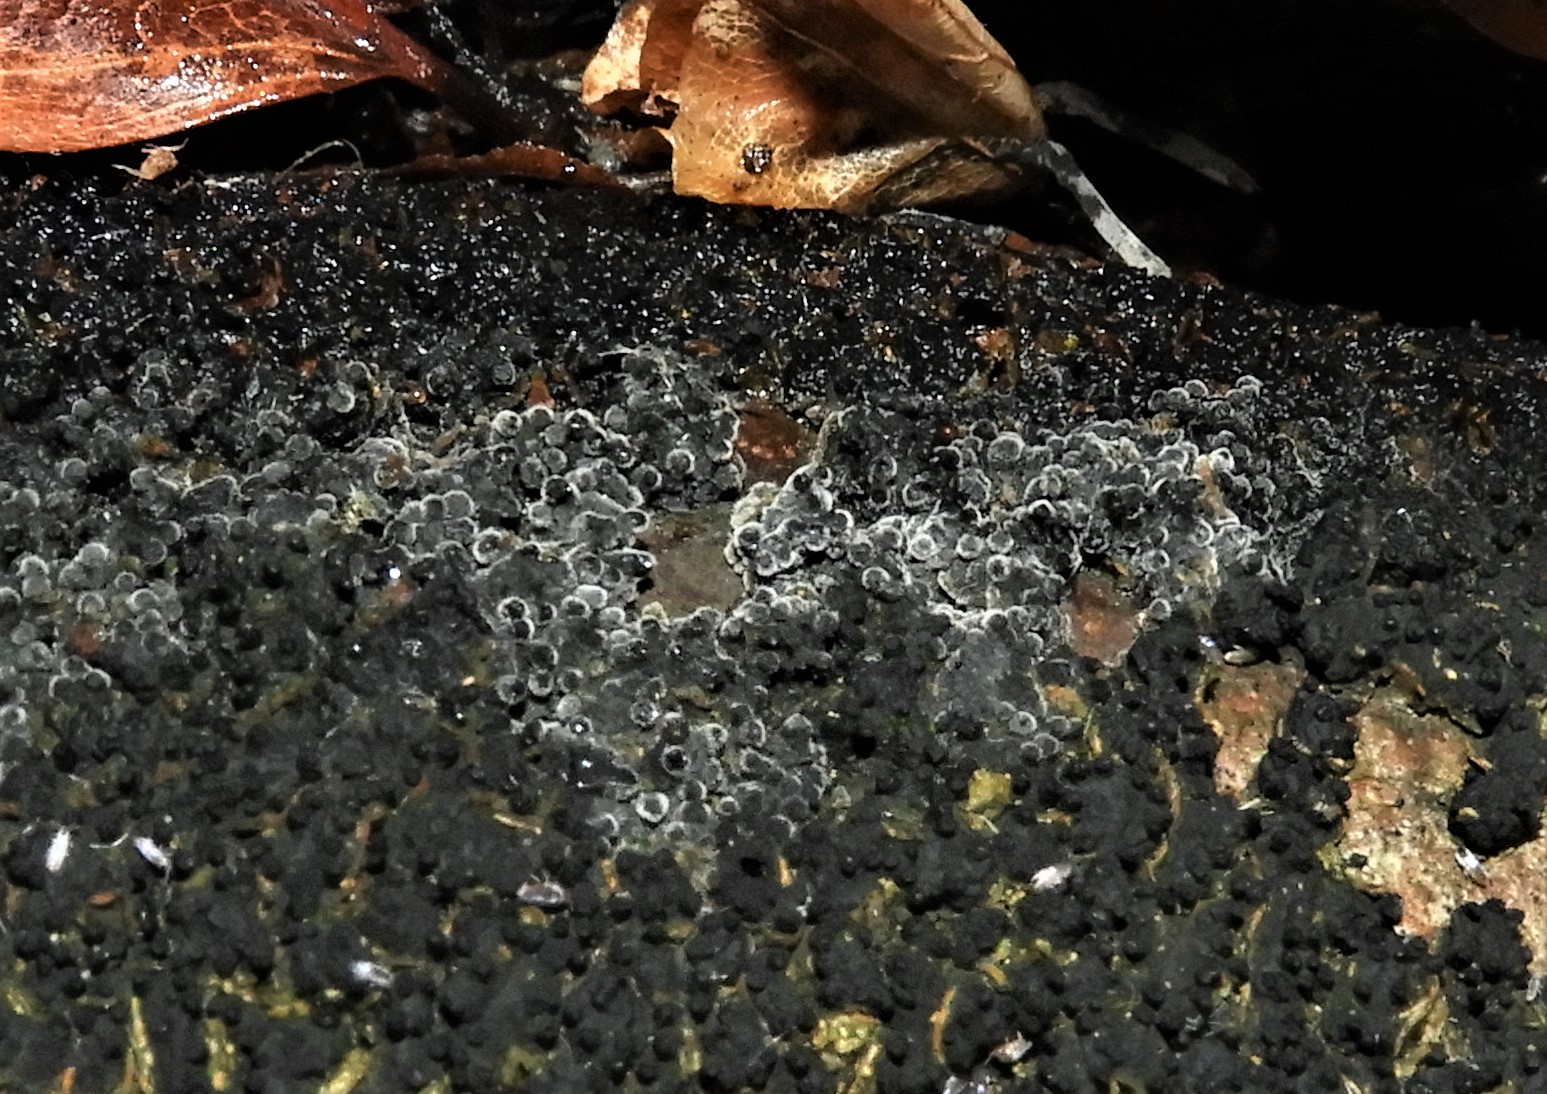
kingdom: Fungi
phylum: Ascomycota
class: Sordariomycetes
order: Xylariales
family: Melogrammataceae
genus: Melogramma
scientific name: Melogramma spiniferum
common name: bøgefod-kulhals
